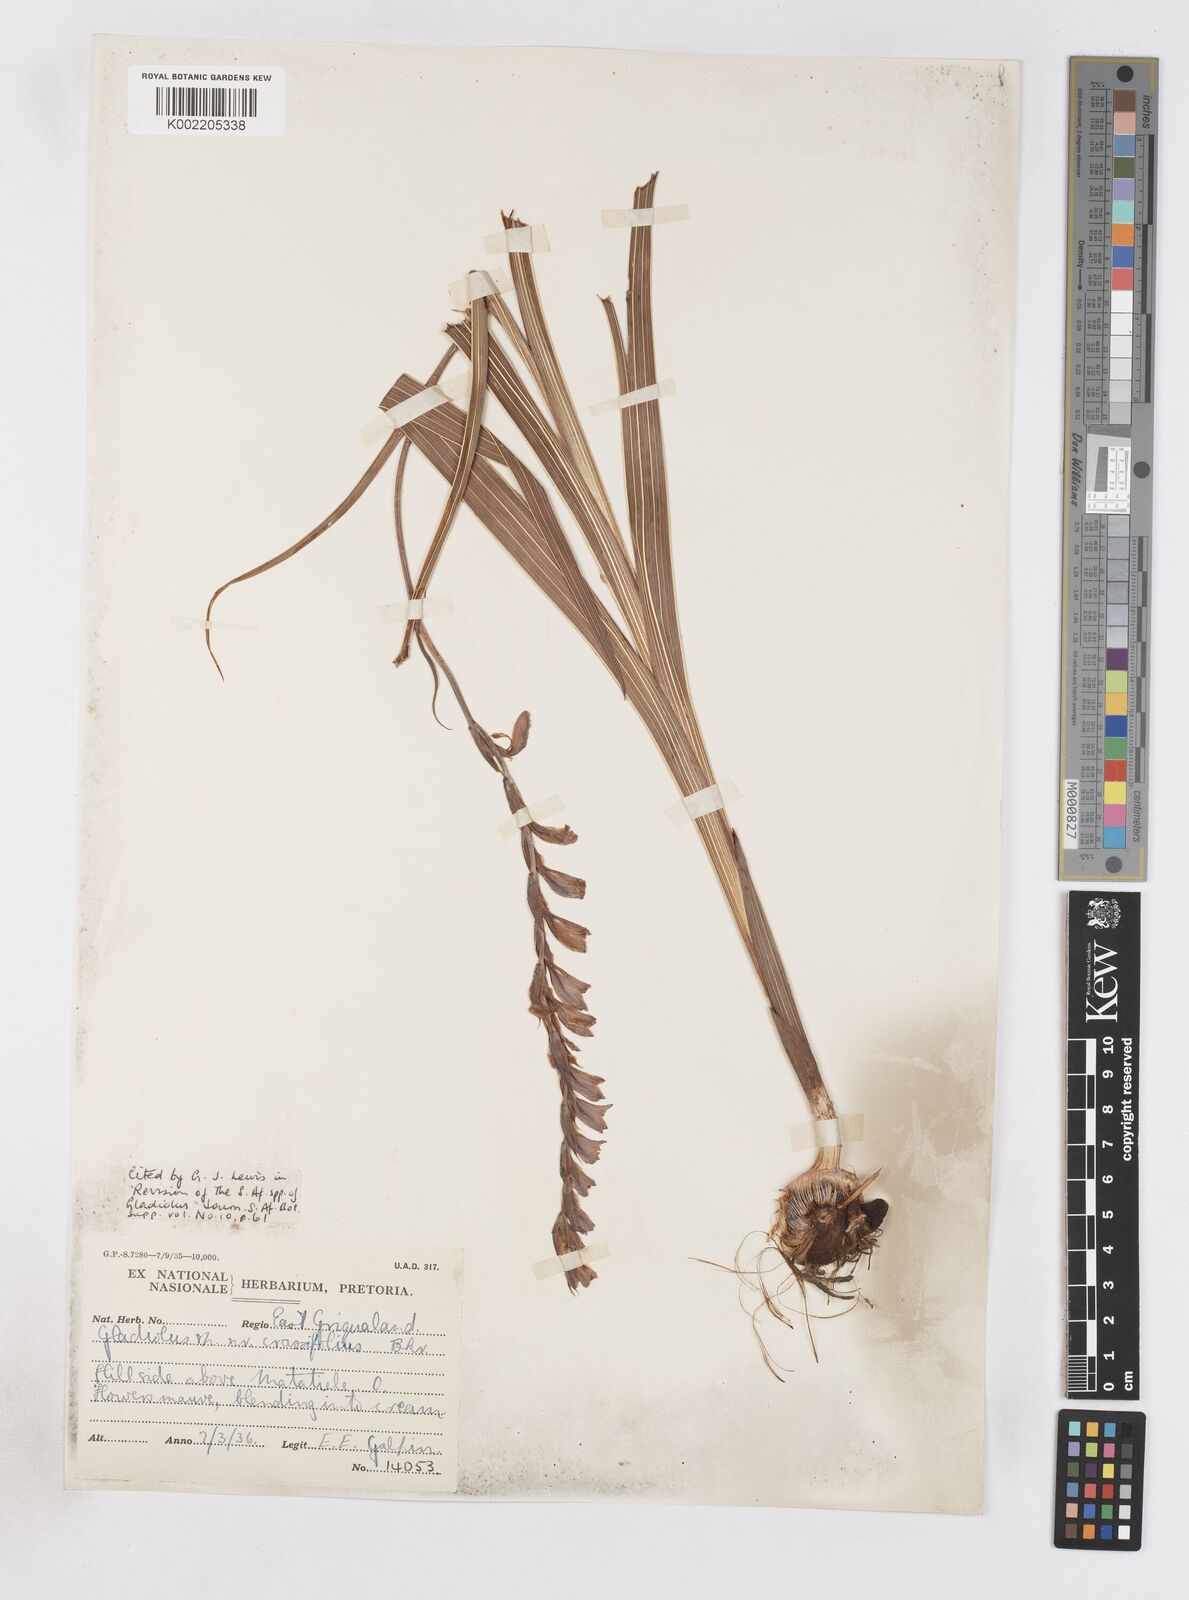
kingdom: Plantae
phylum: Tracheophyta
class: Liliopsida
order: Asparagales
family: Iridaceae
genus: Gladiolus
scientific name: Gladiolus crassifolius
